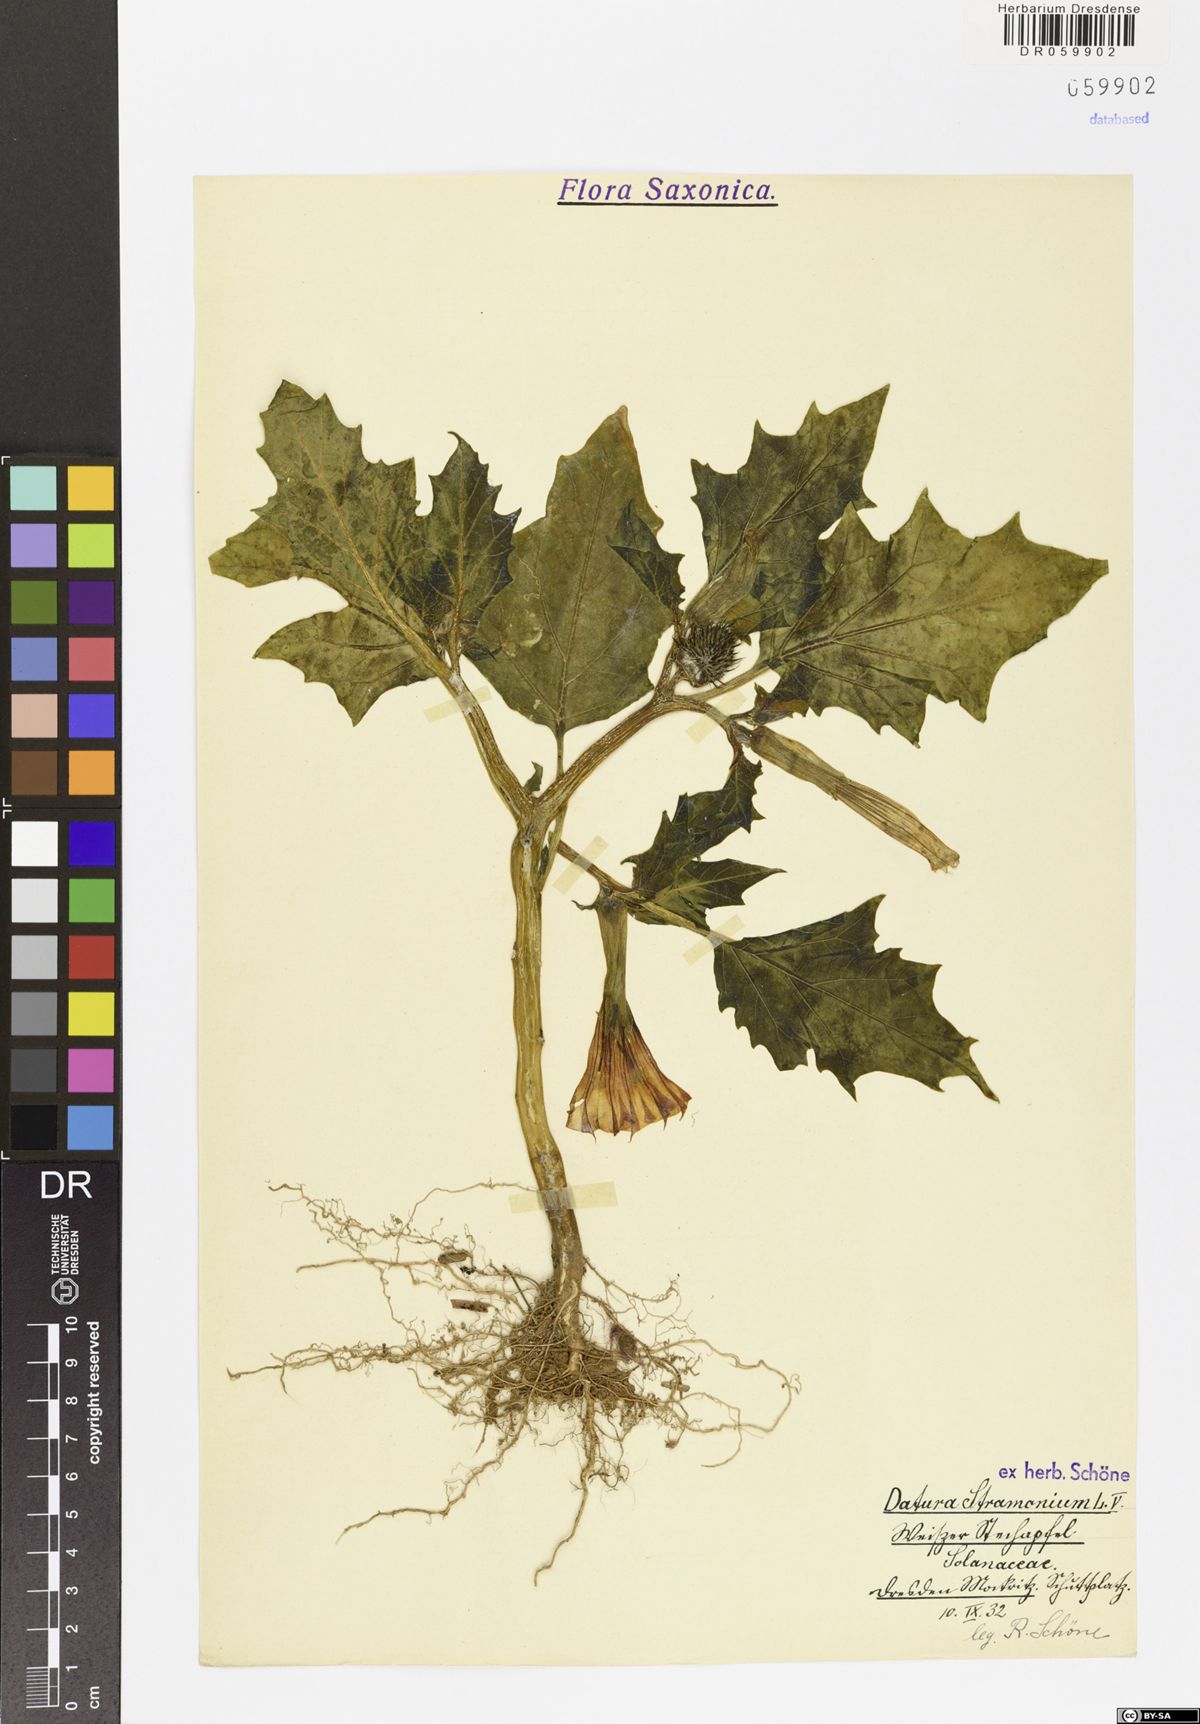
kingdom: Plantae
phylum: Tracheophyta
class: Magnoliopsida
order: Solanales
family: Solanaceae
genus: Datura
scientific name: Datura stramonium
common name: Thorn-apple
